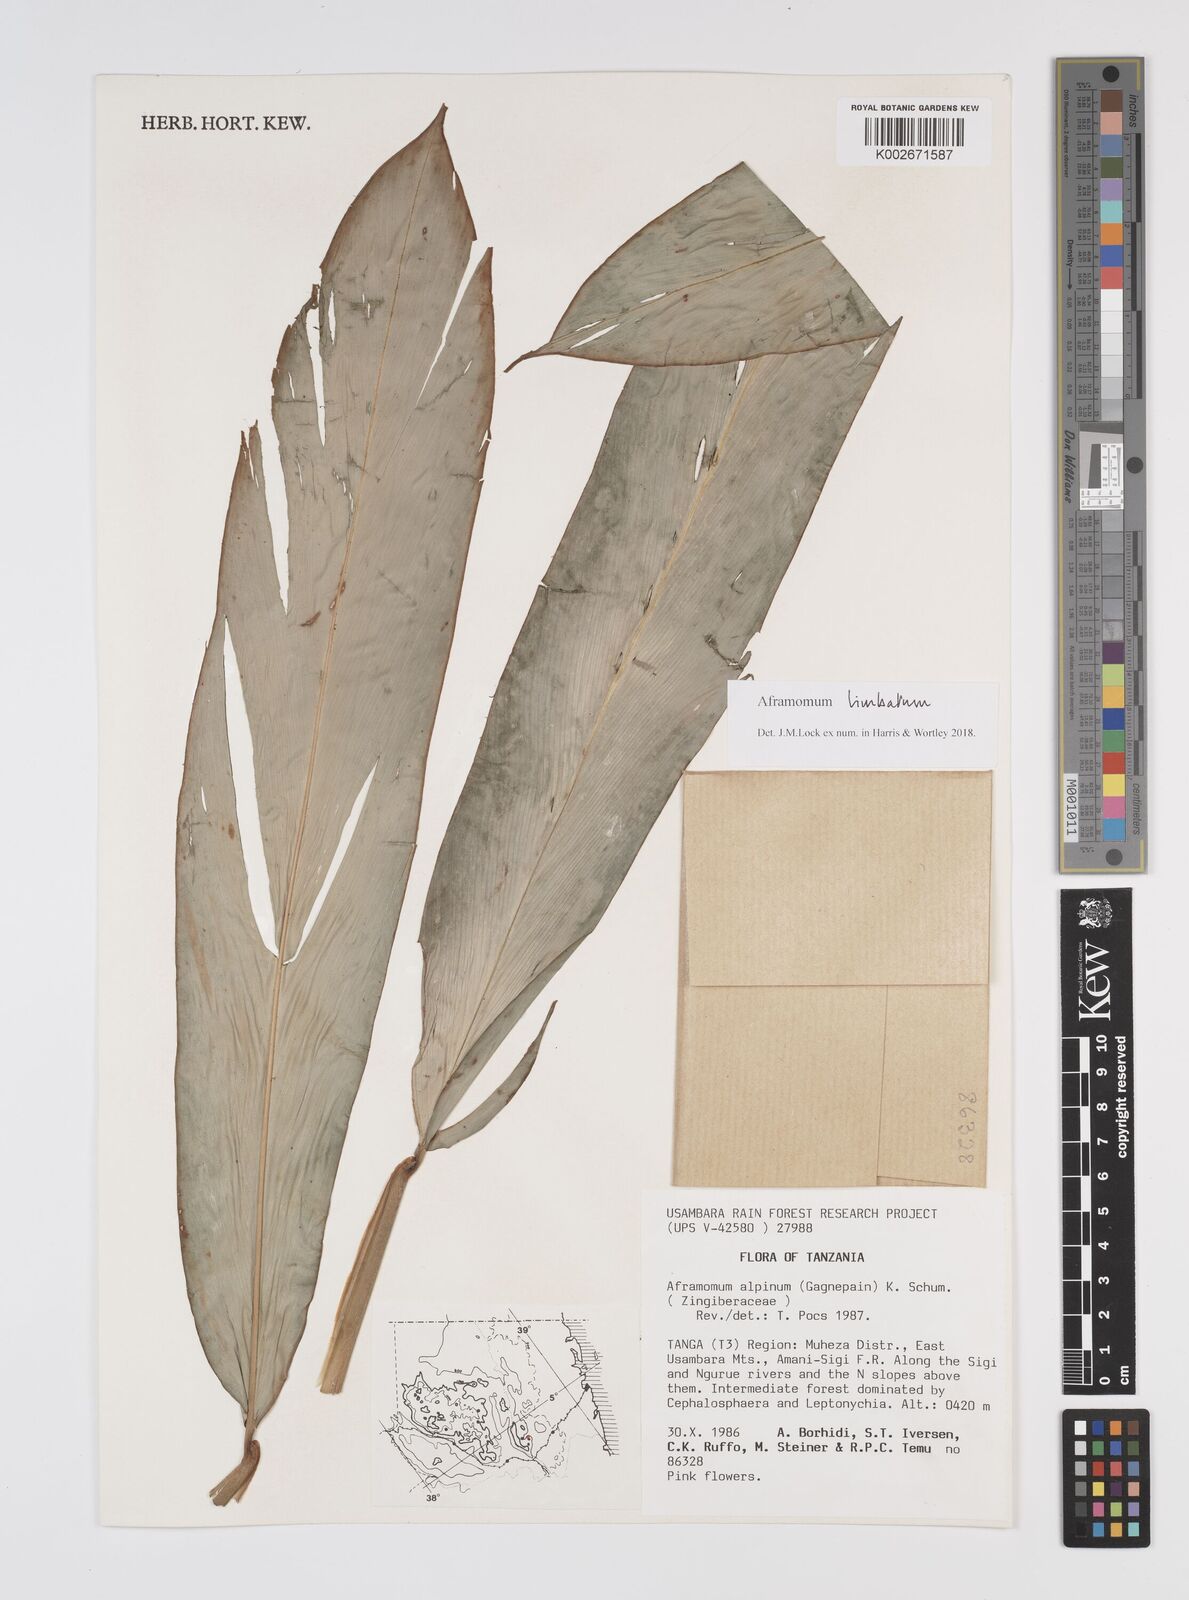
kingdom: Plantae
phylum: Tracheophyta
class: Liliopsida
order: Zingiberales
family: Zingiberaceae
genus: Aframomum
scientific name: Aframomum limbatum
